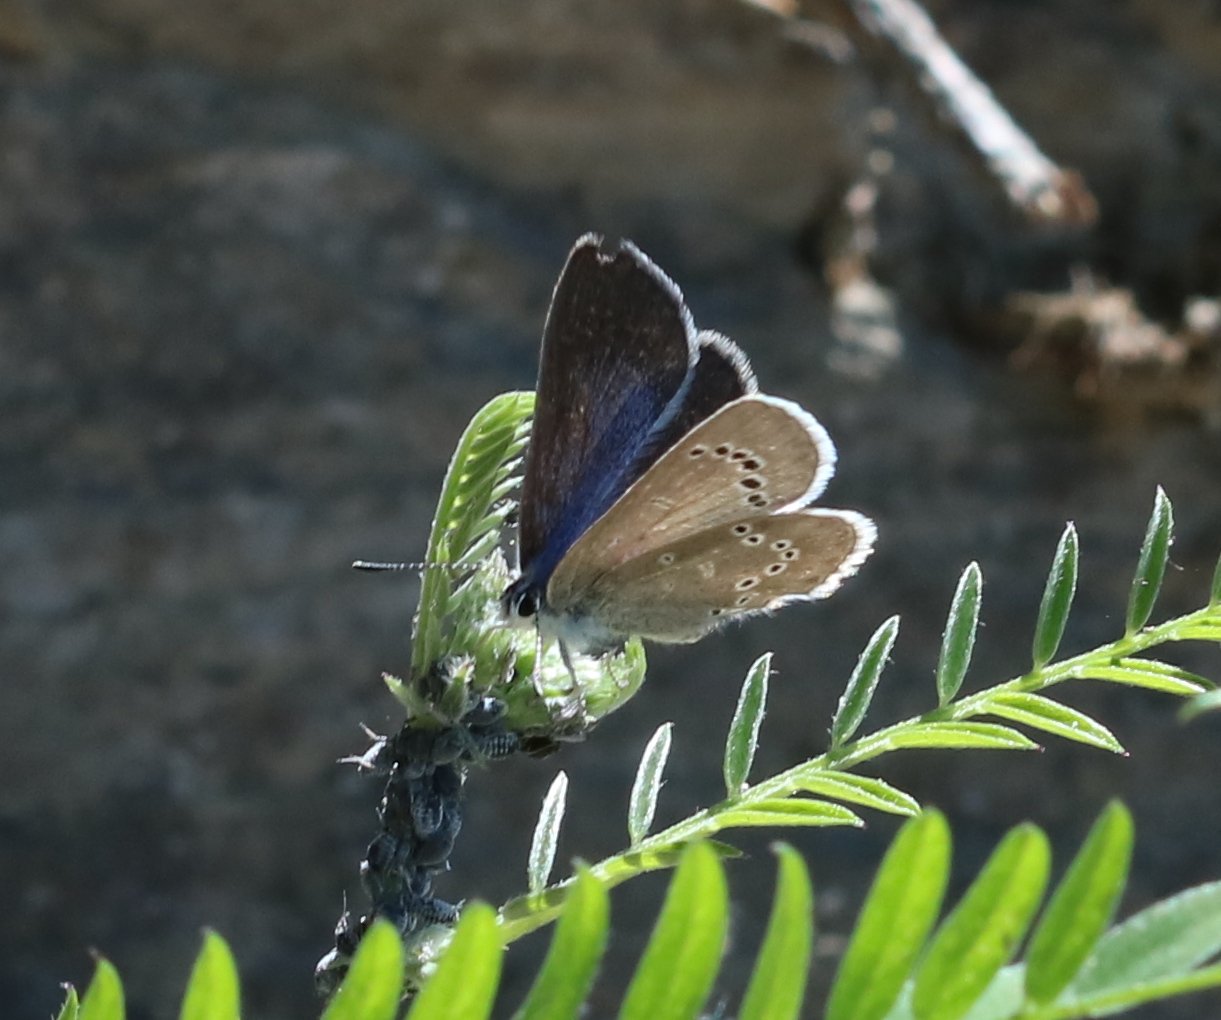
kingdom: Animalia
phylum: Arthropoda
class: Insecta
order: Lepidoptera
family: Lycaenidae
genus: Glaucopsyche
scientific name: Glaucopsyche lygdamus
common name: Silvery Blue
